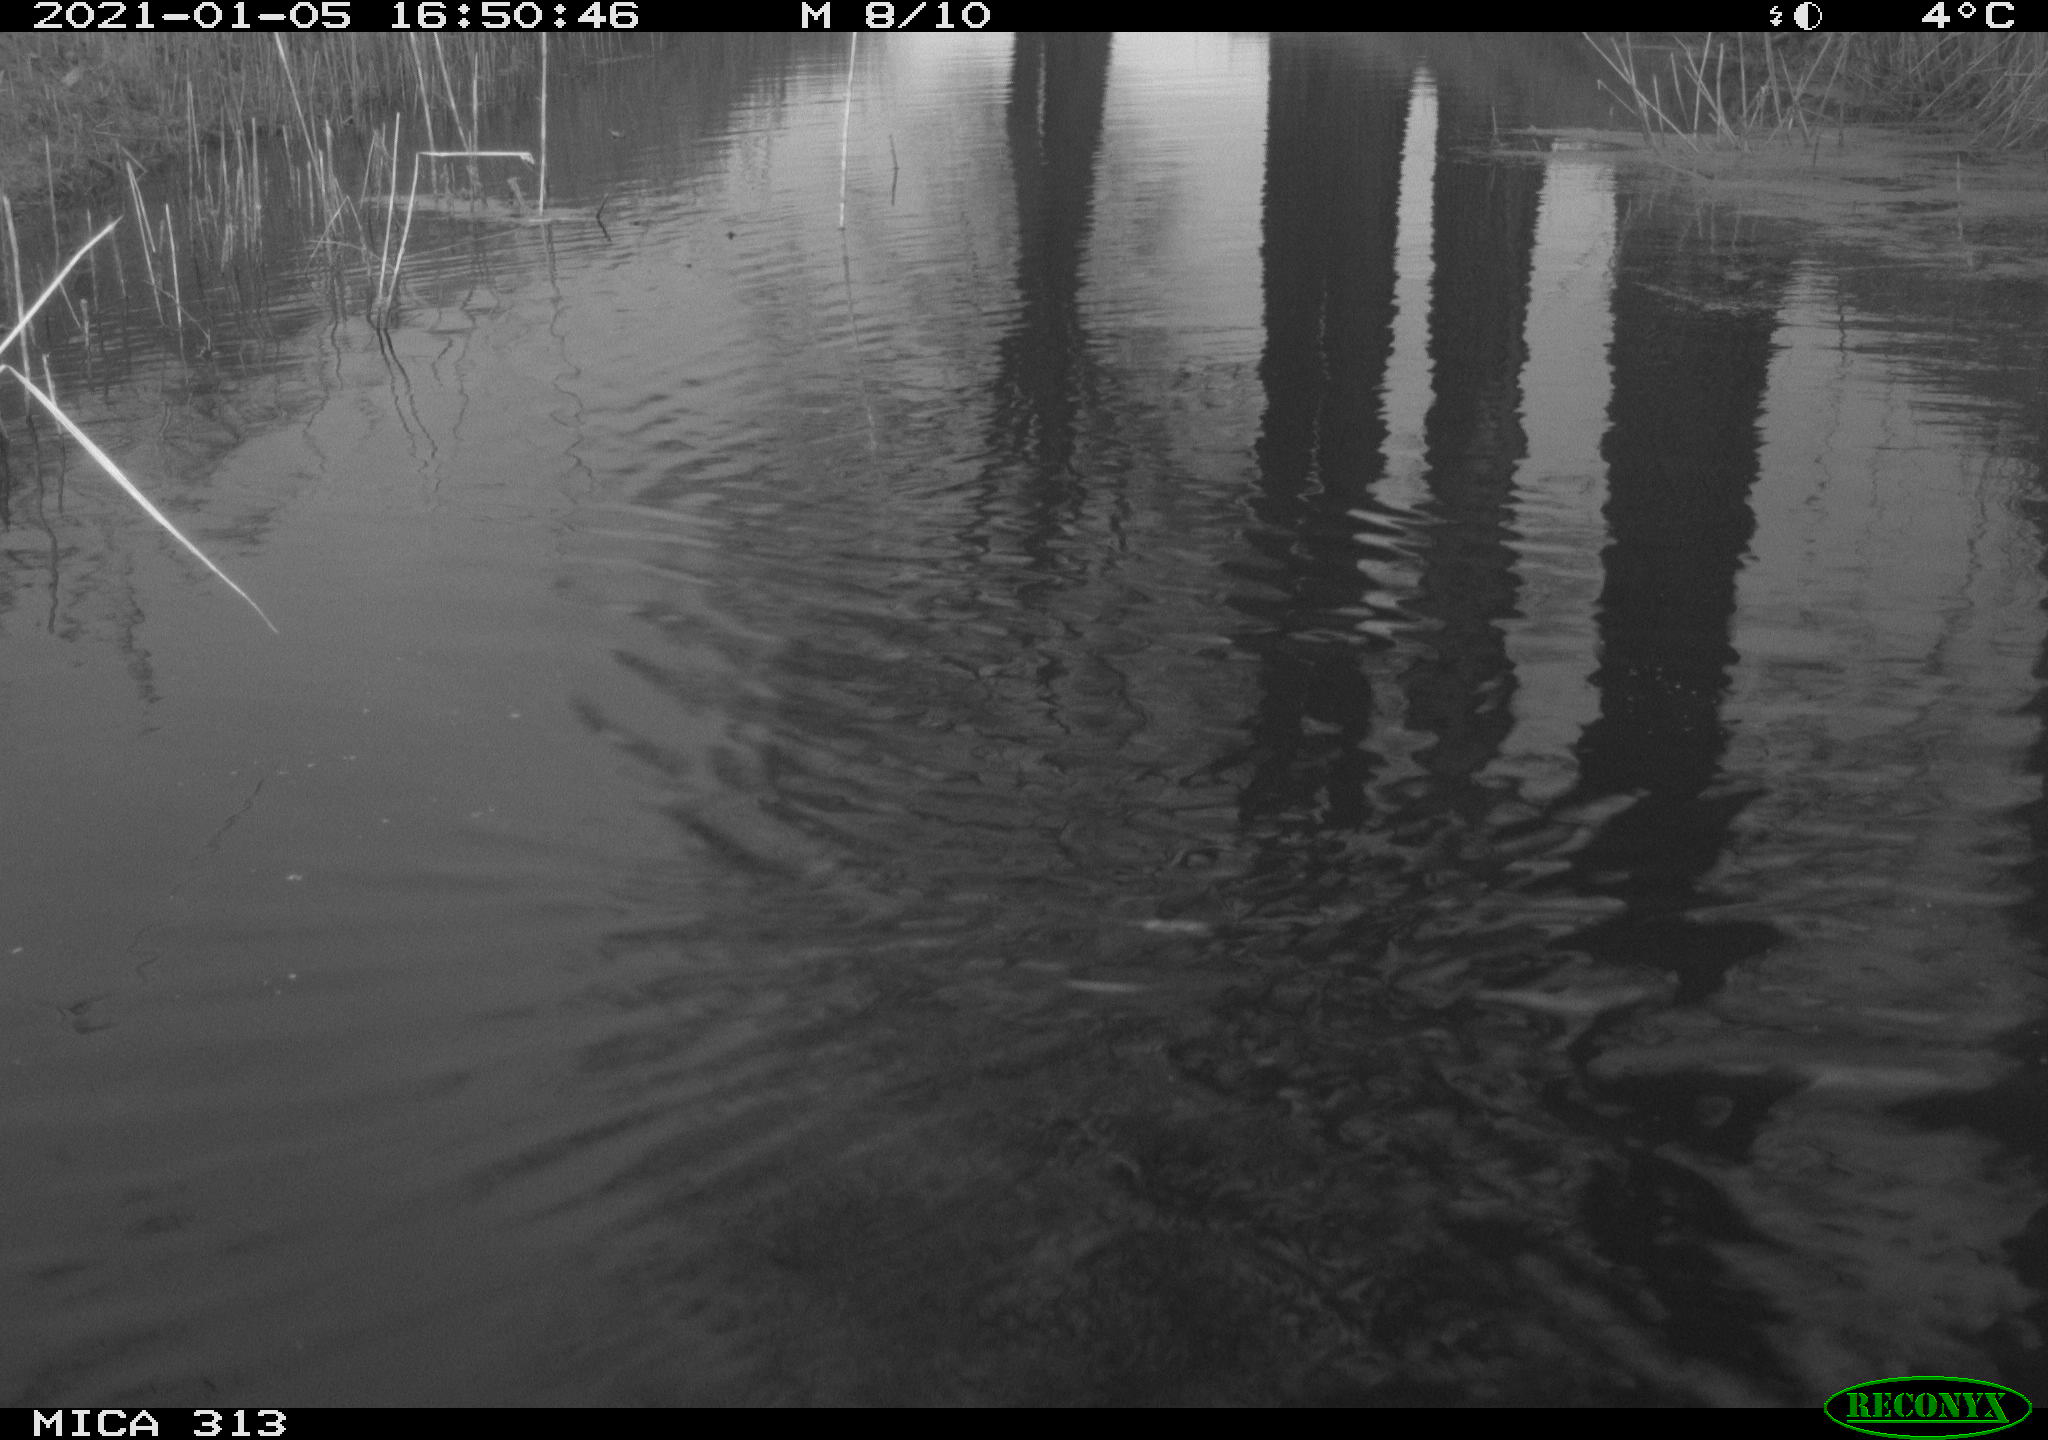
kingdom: Animalia
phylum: Chordata
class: Aves
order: Gruiformes
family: Rallidae
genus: Gallinula
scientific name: Gallinula chloropus
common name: Common moorhen
